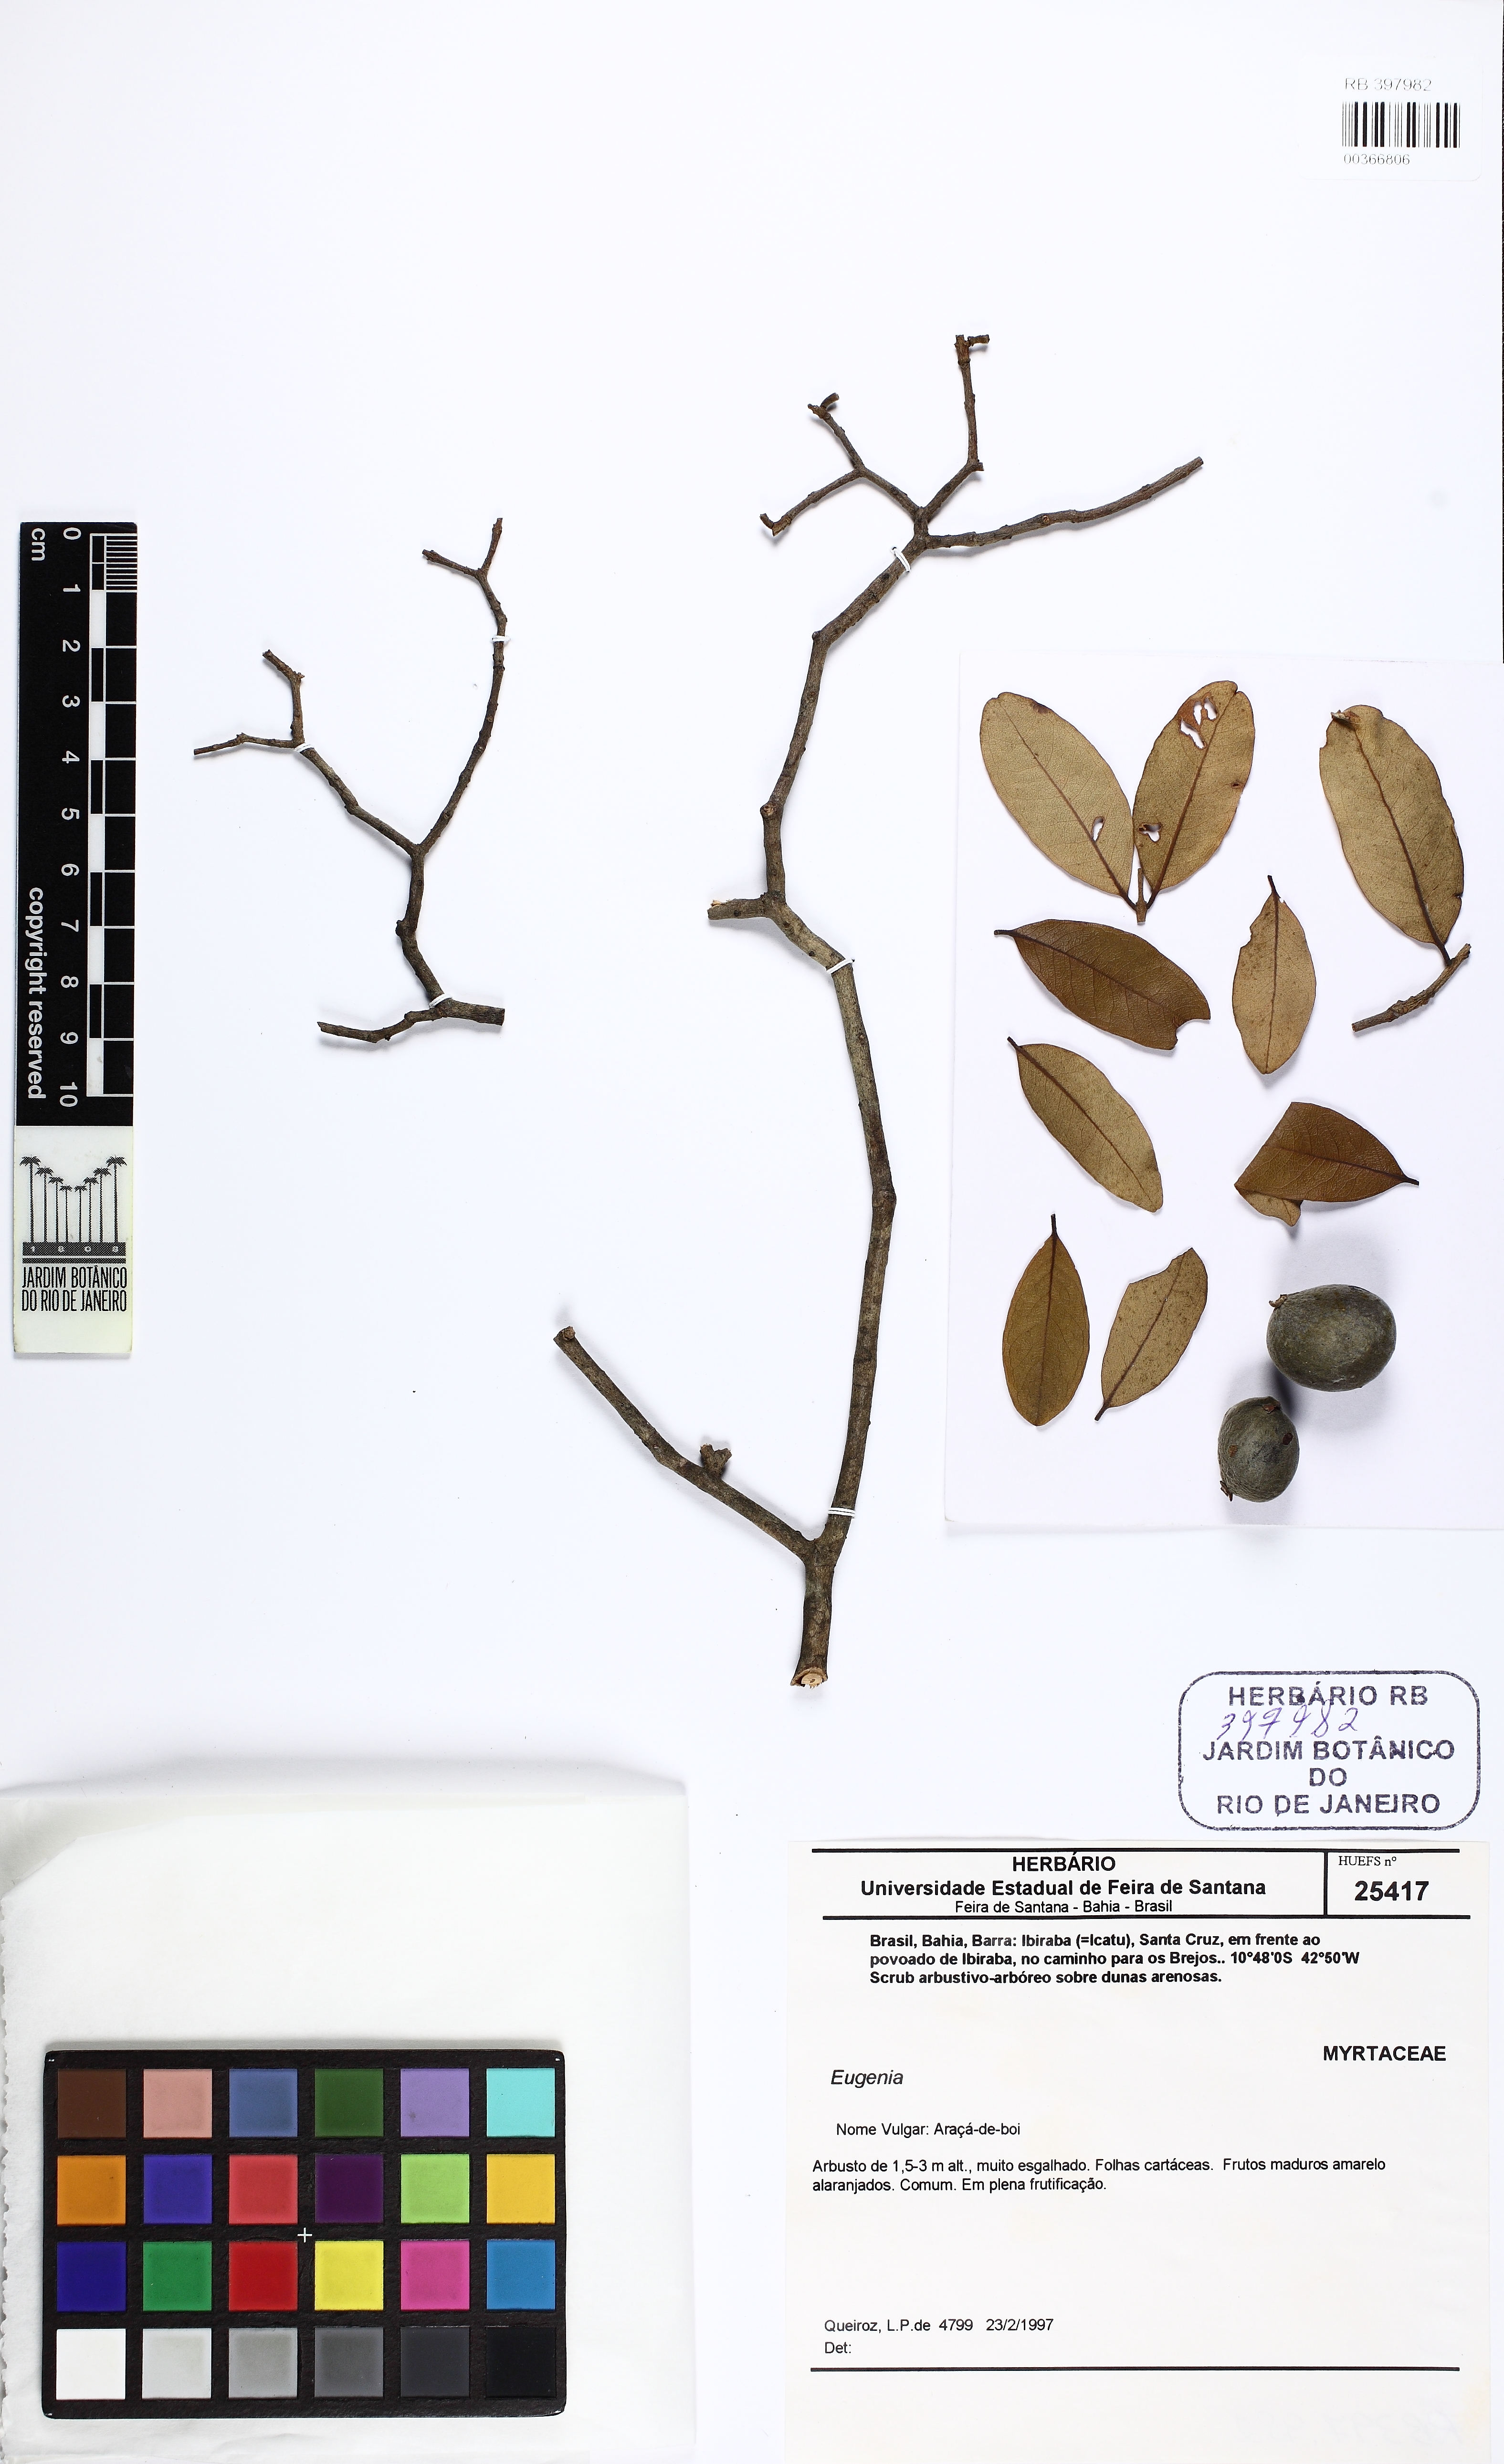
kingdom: Plantae
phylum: Tracheophyta
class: Magnoliopsida
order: Myrtales
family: Myrtaceae
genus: Eugenia
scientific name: Eugenia
